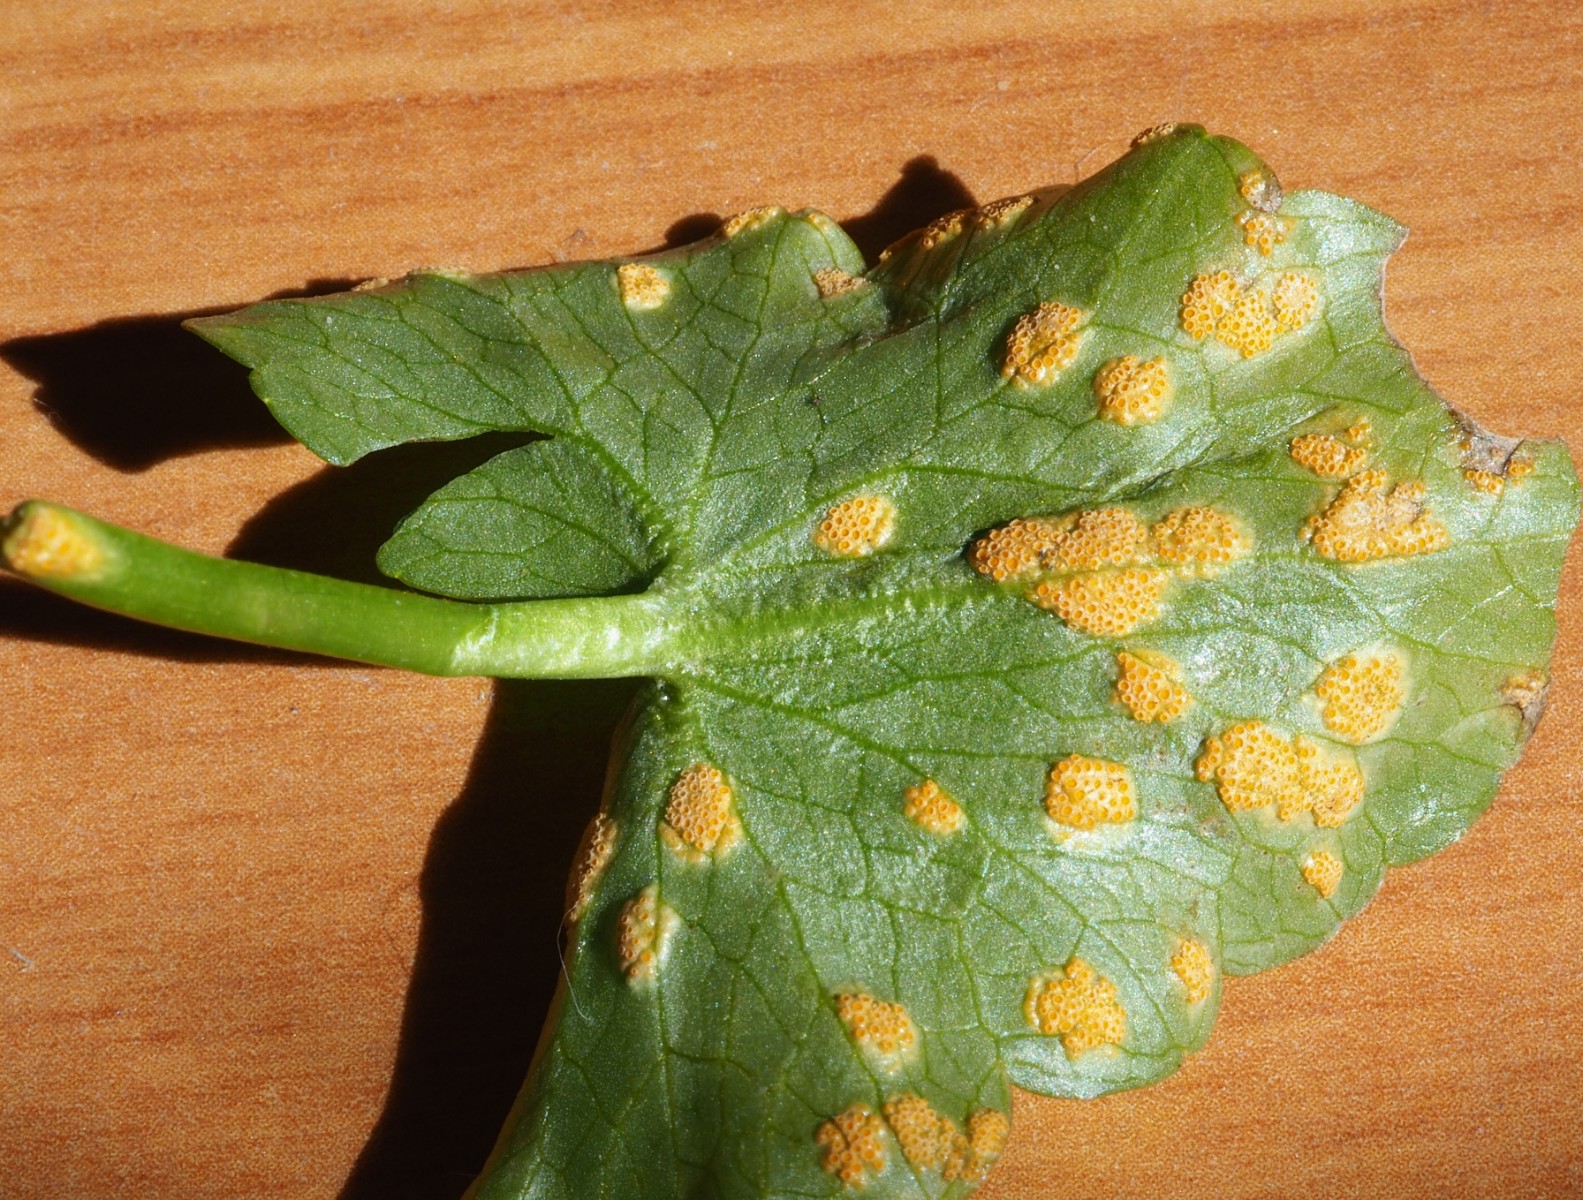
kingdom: Fungi
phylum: Basidiomycota
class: Pucciniomycetes
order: Pucciniales
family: Pucciniaceae
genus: Uromyces
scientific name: Uromyces dactylidis
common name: ranunkel-encellerust
